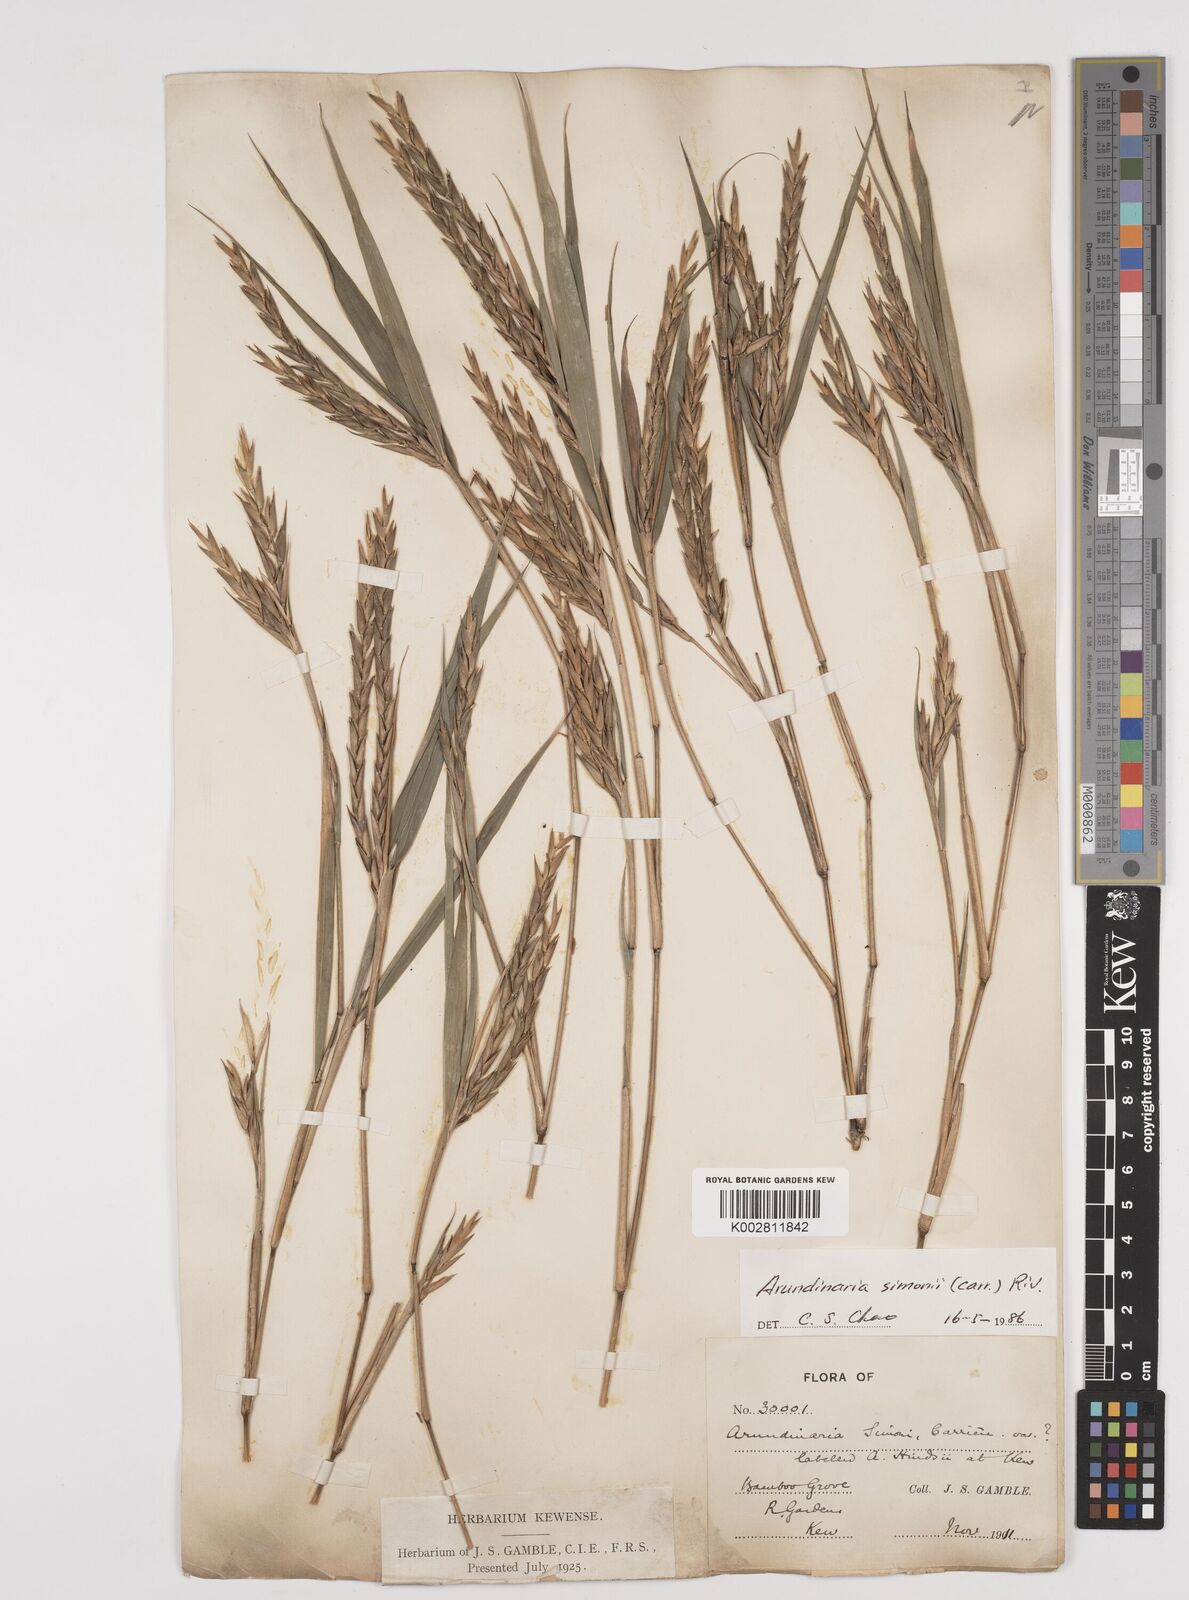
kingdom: Plantae
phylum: Tracheophyta
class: Liliopsida
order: Poales
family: Poaceae
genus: Pleioblastus
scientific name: Pleioblastus simonii
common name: Simon bamboo
